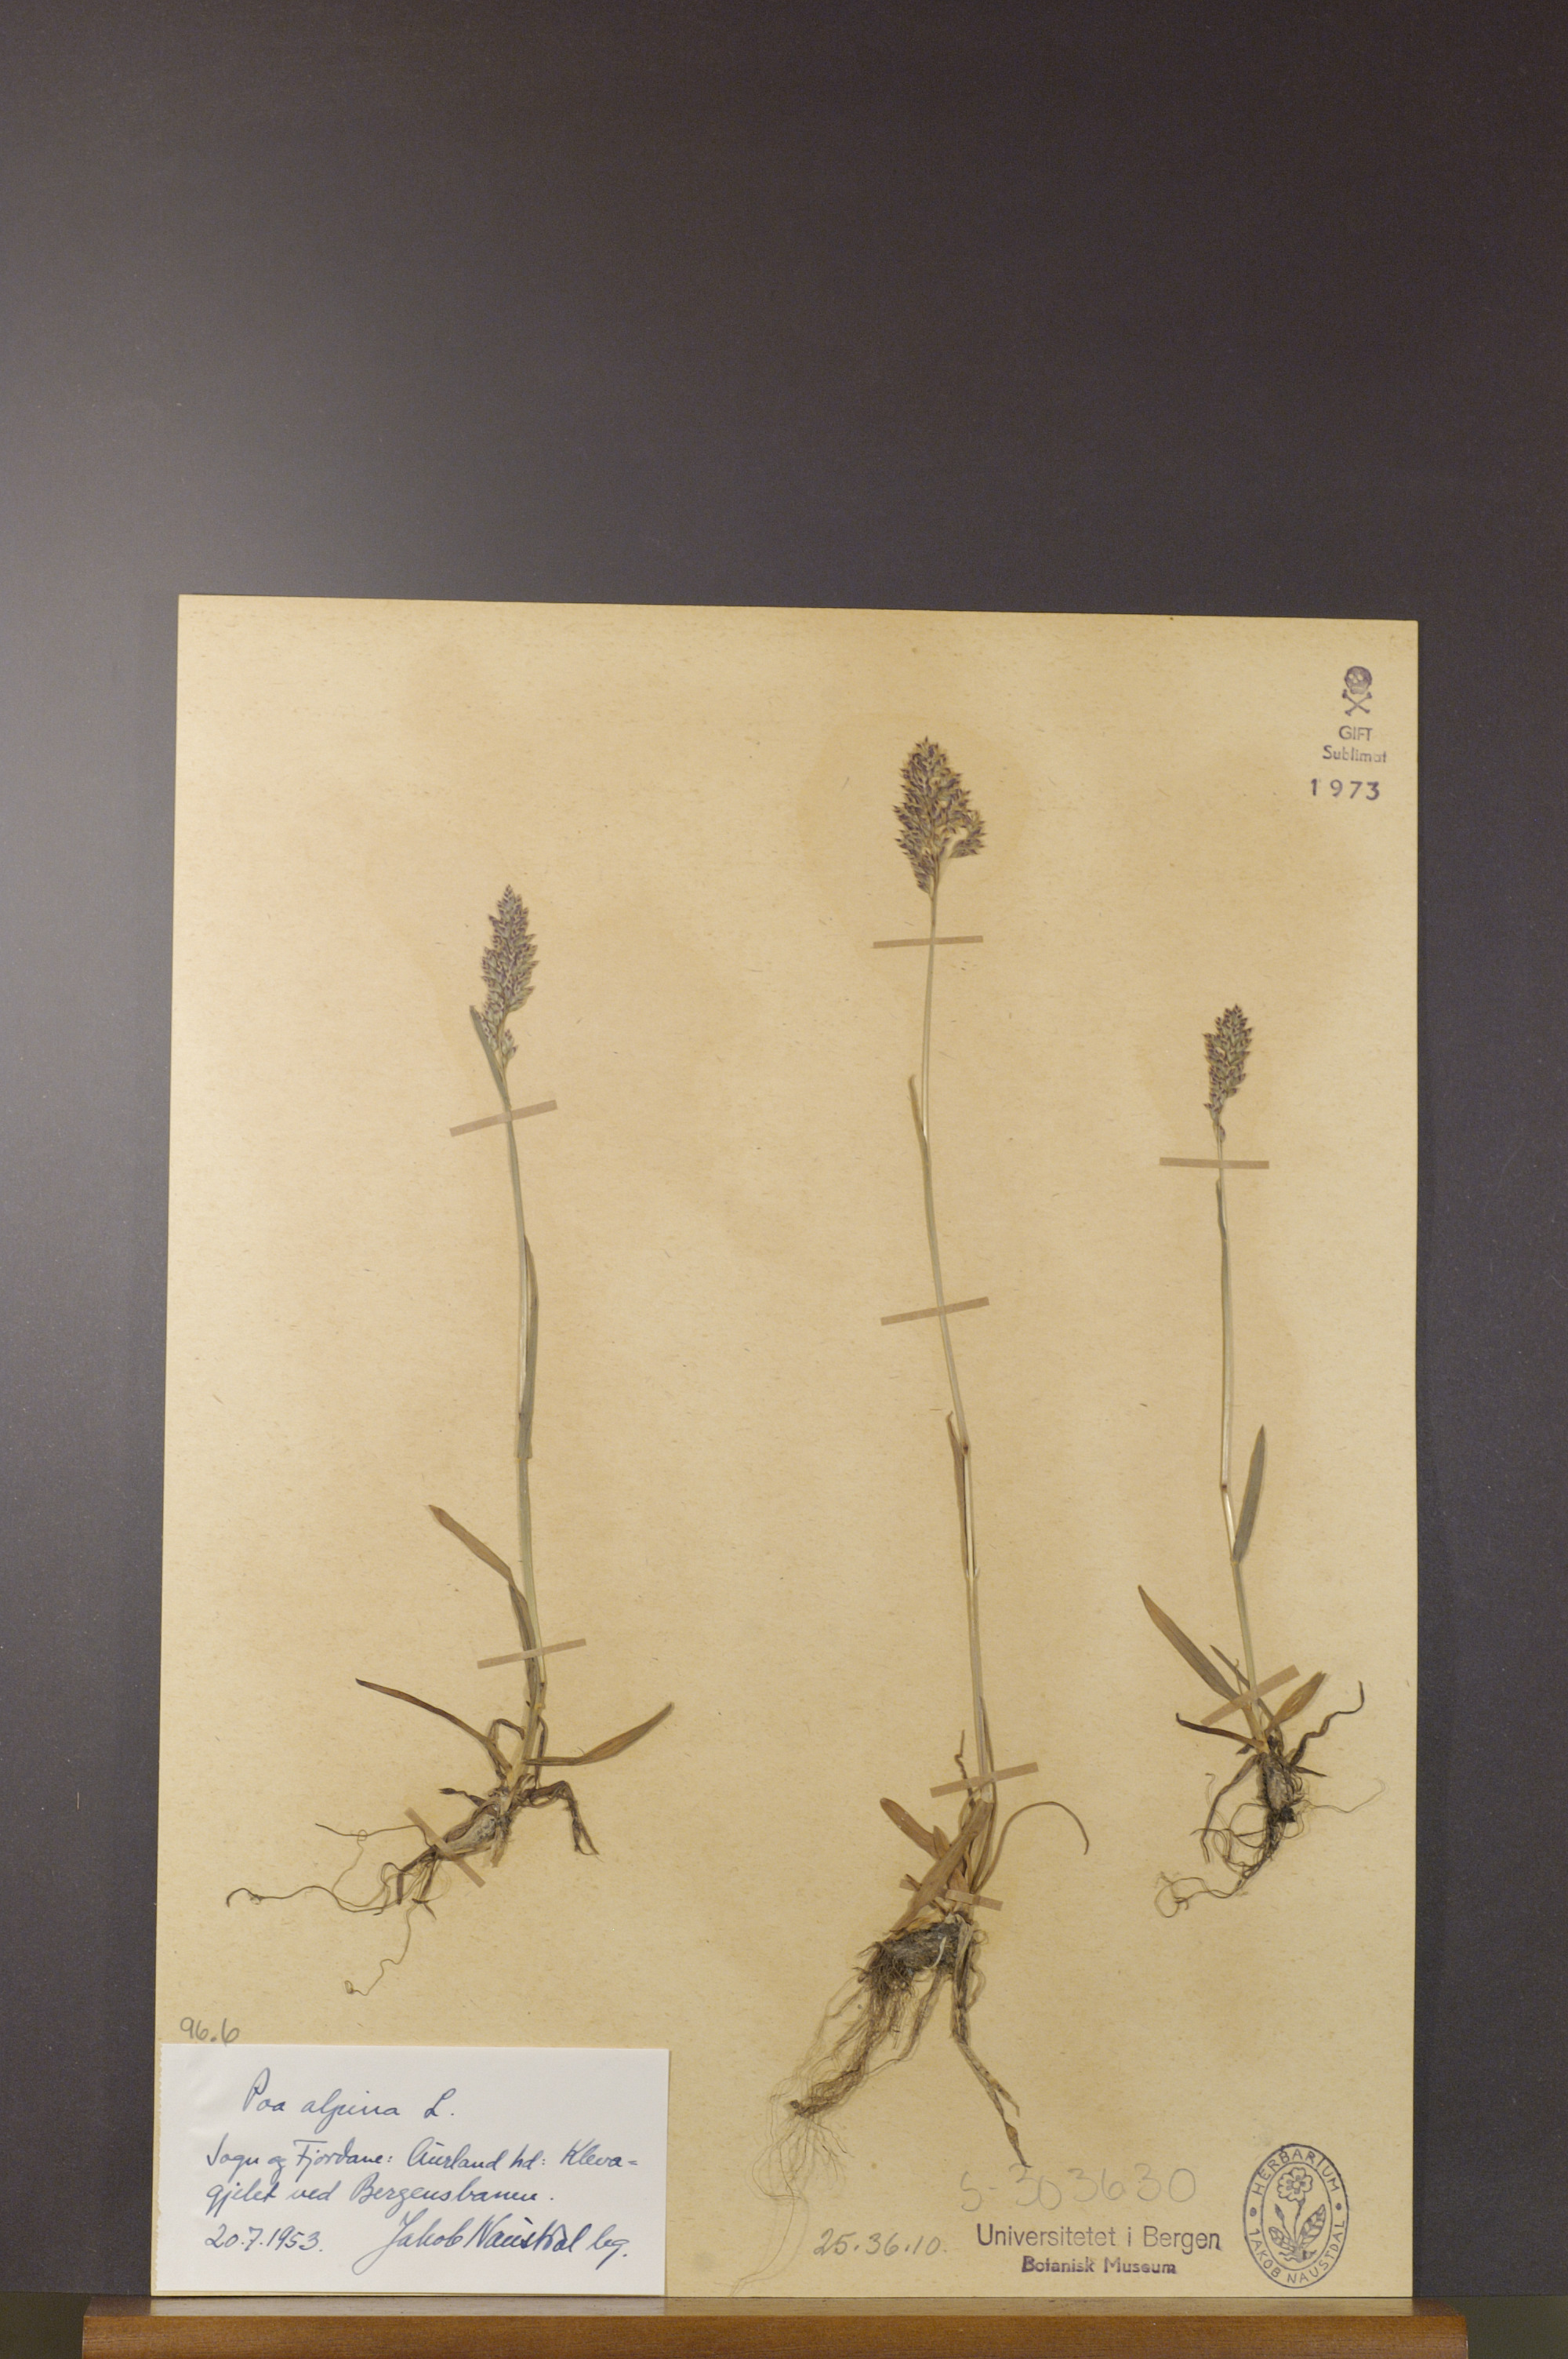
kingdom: Plantae
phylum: Tracheophyta
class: Liliopsida
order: Poales
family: Poaceae
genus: Poa
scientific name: Poa alpina
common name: Alpine bluegrass
